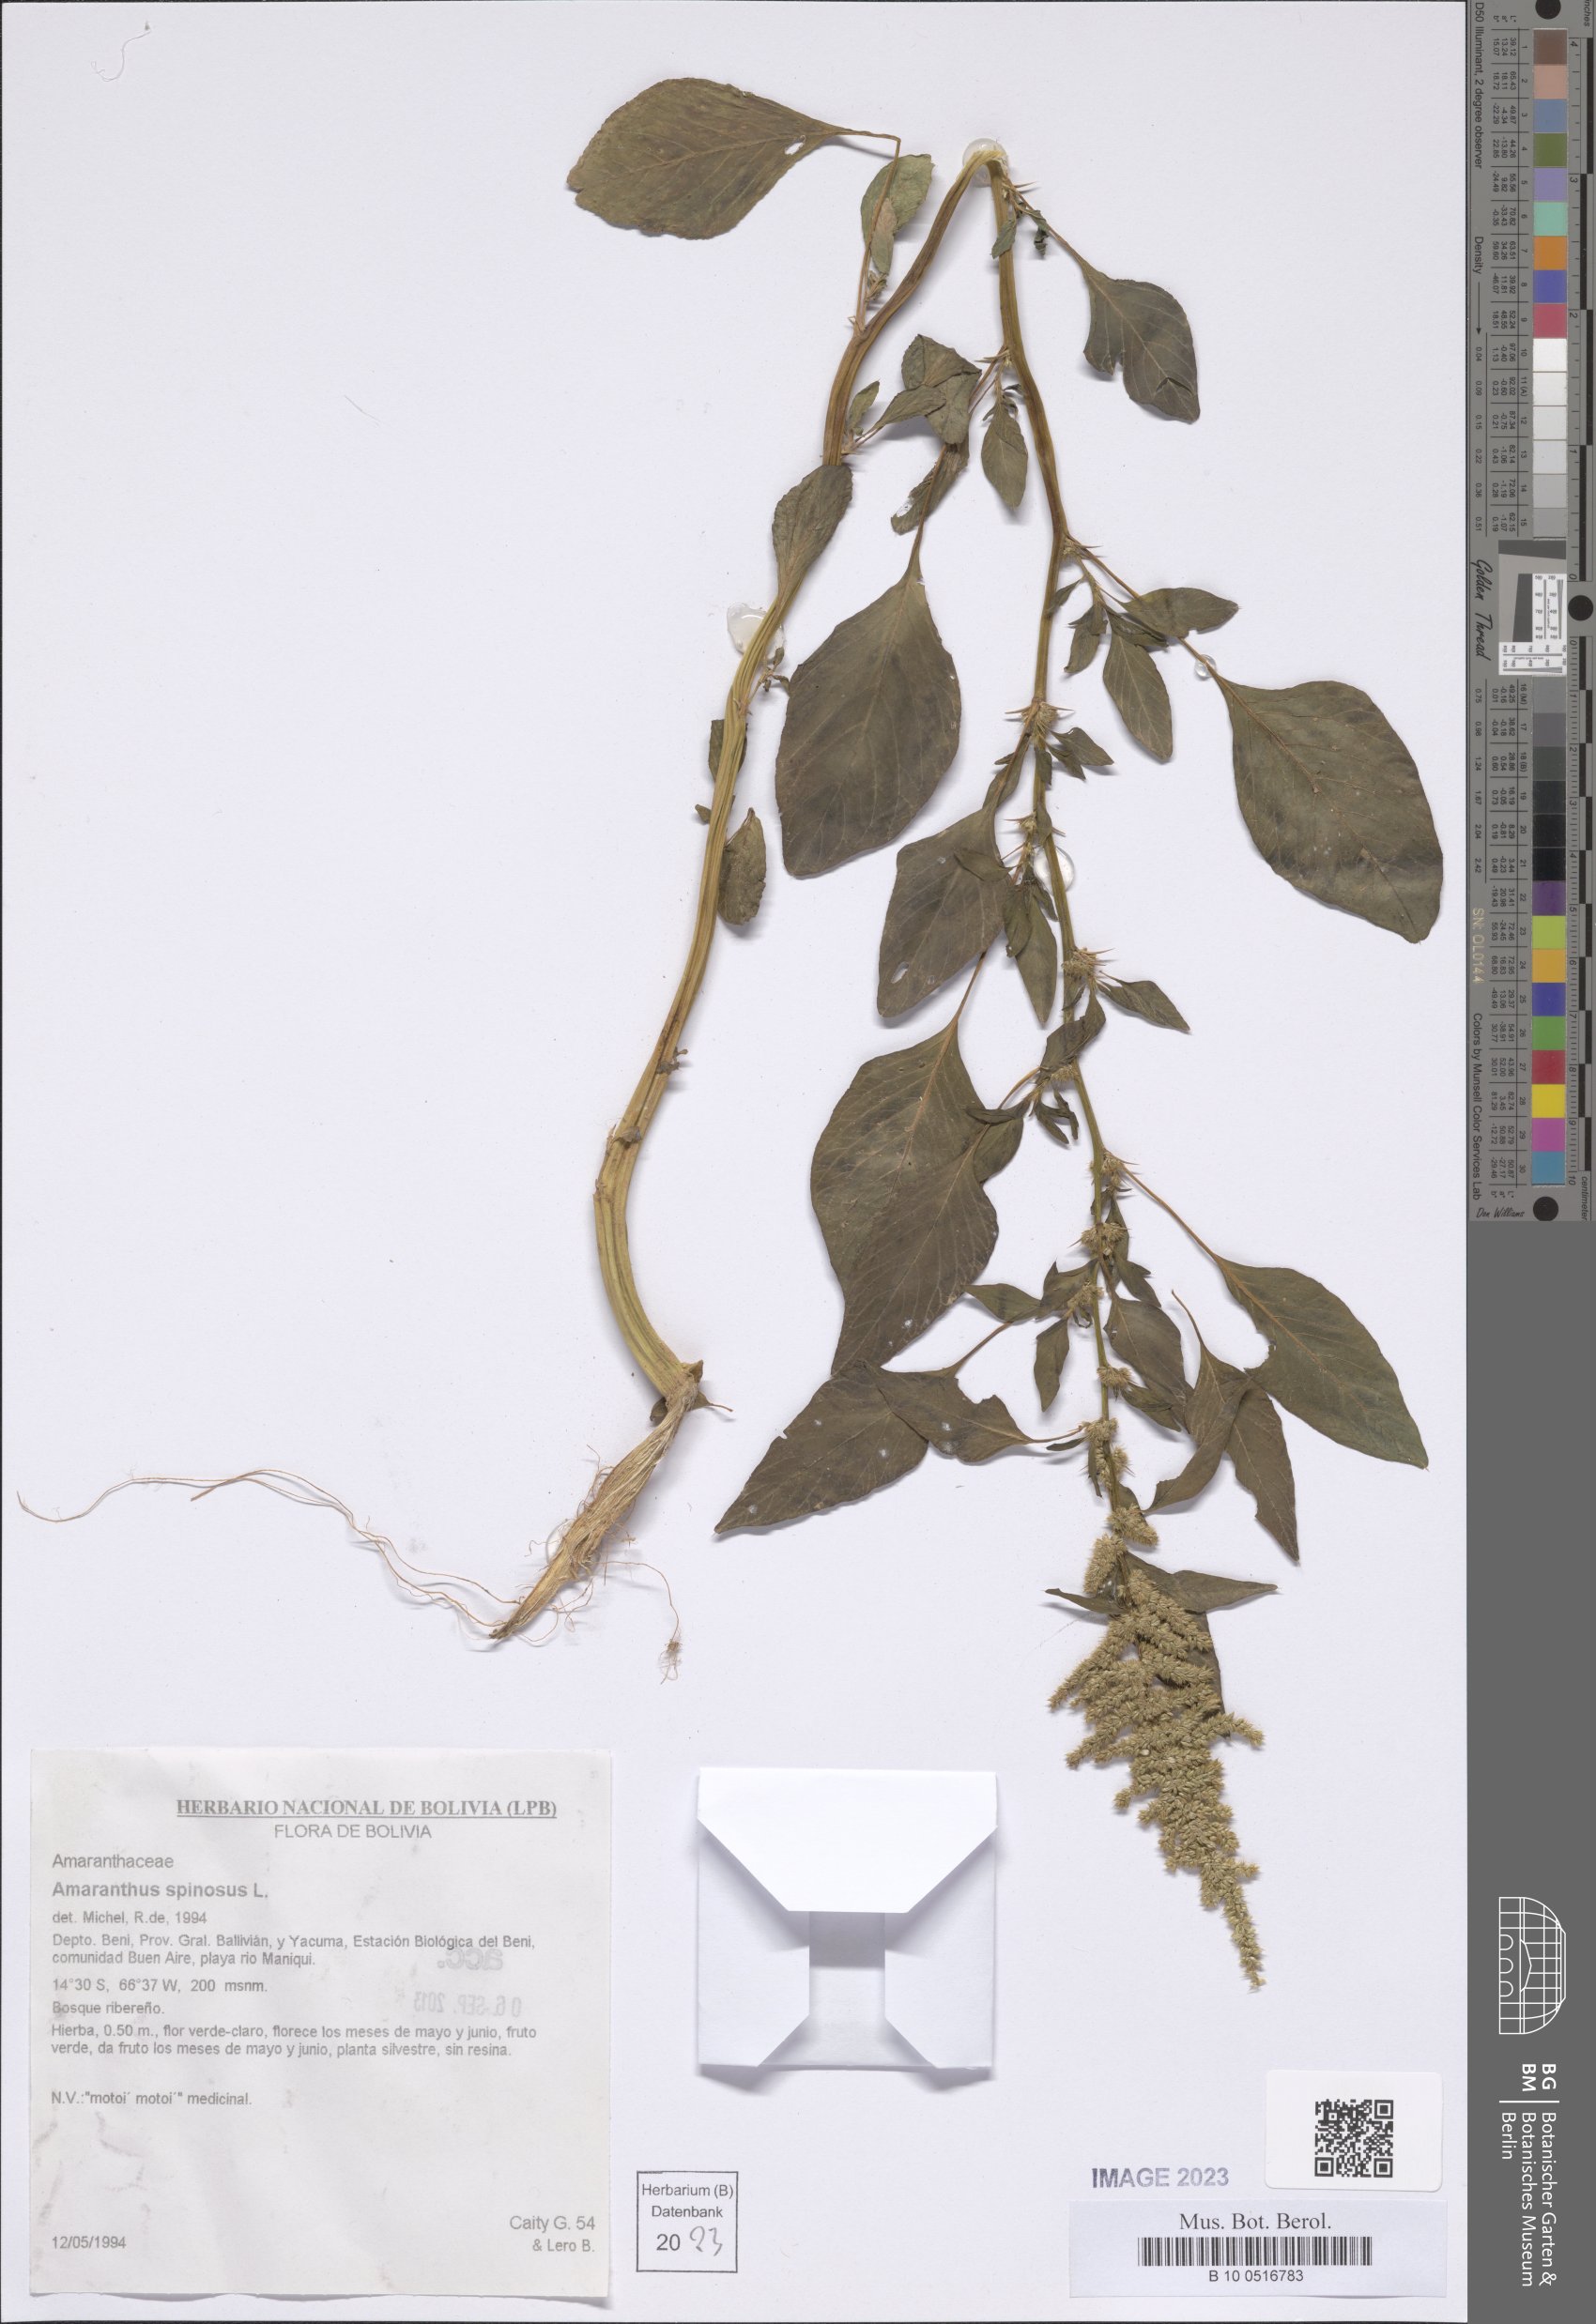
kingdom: Plantae
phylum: Tracheophyta
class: Magnoliopsida
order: Caryophyllales
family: Amaranthaceae
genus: Amaranthus
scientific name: Amaranthus spinosus
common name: Spiny amaranth
